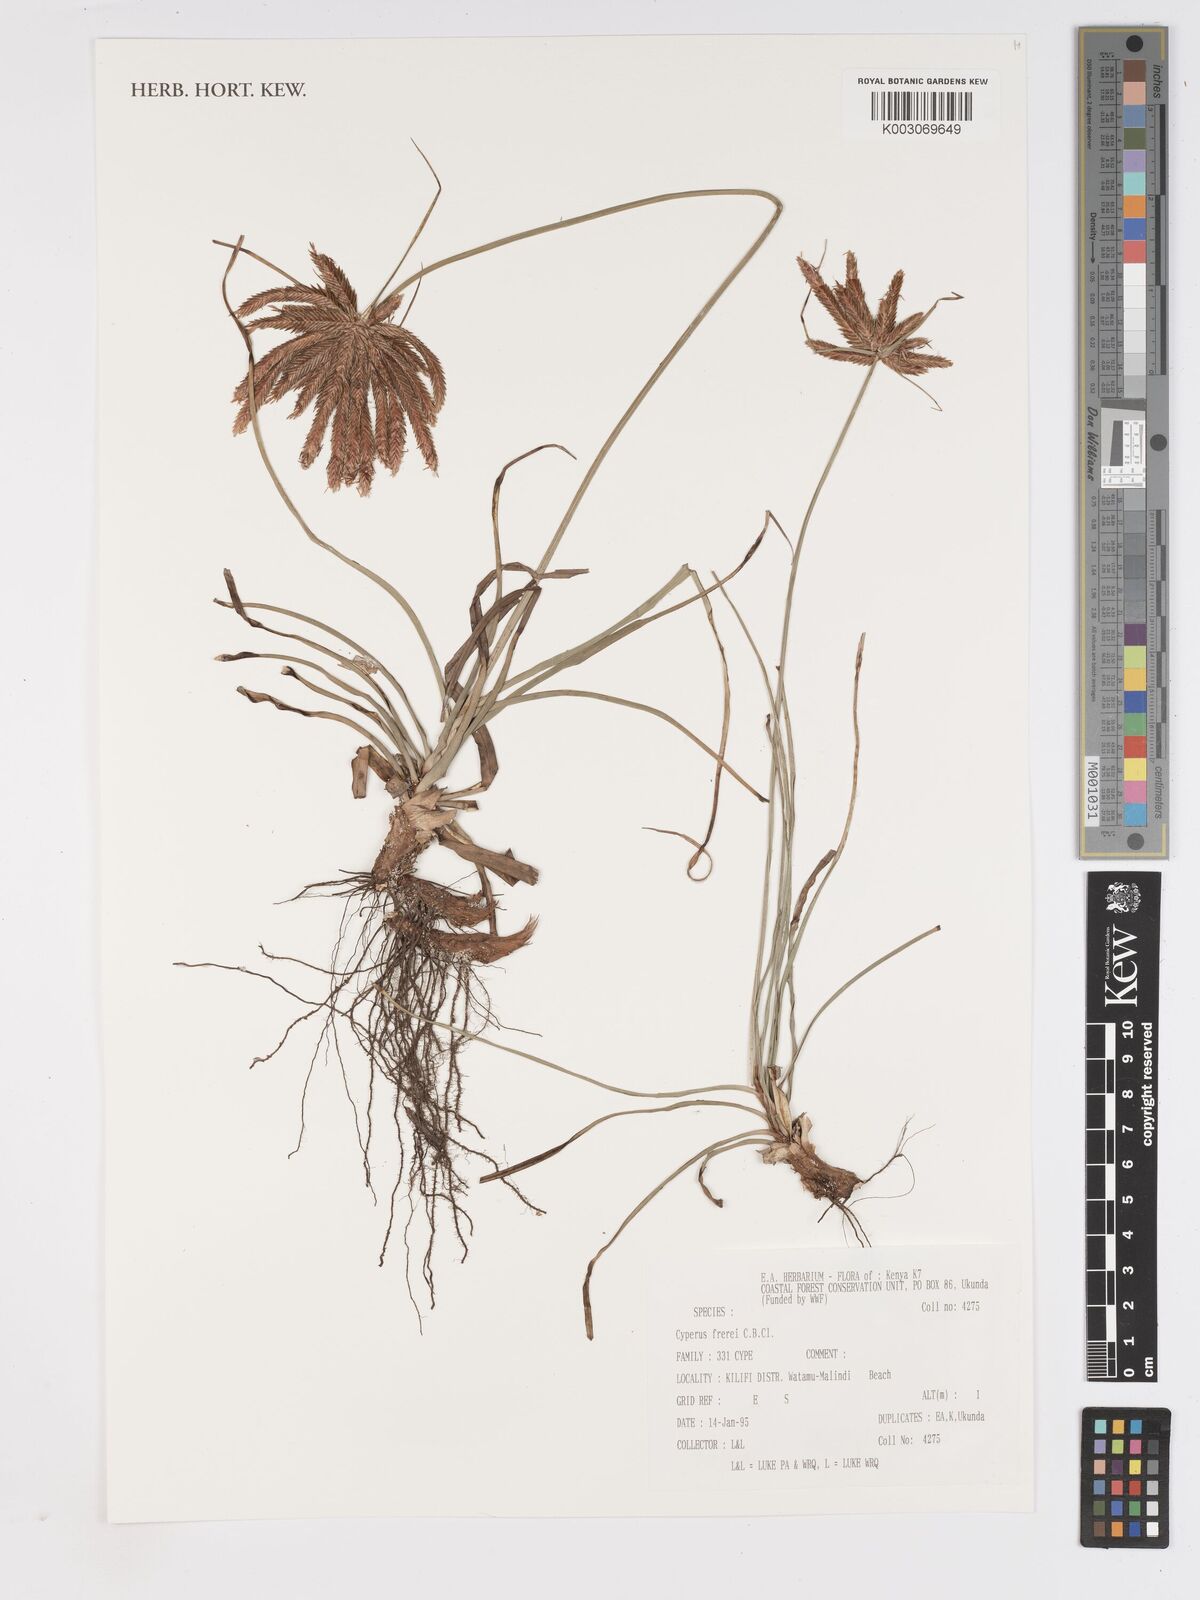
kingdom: Plantae
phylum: Tracheophyta
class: Liliopsida
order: Poales
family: Cyperaceae
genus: Cyperus
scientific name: Cyperus crassipes
